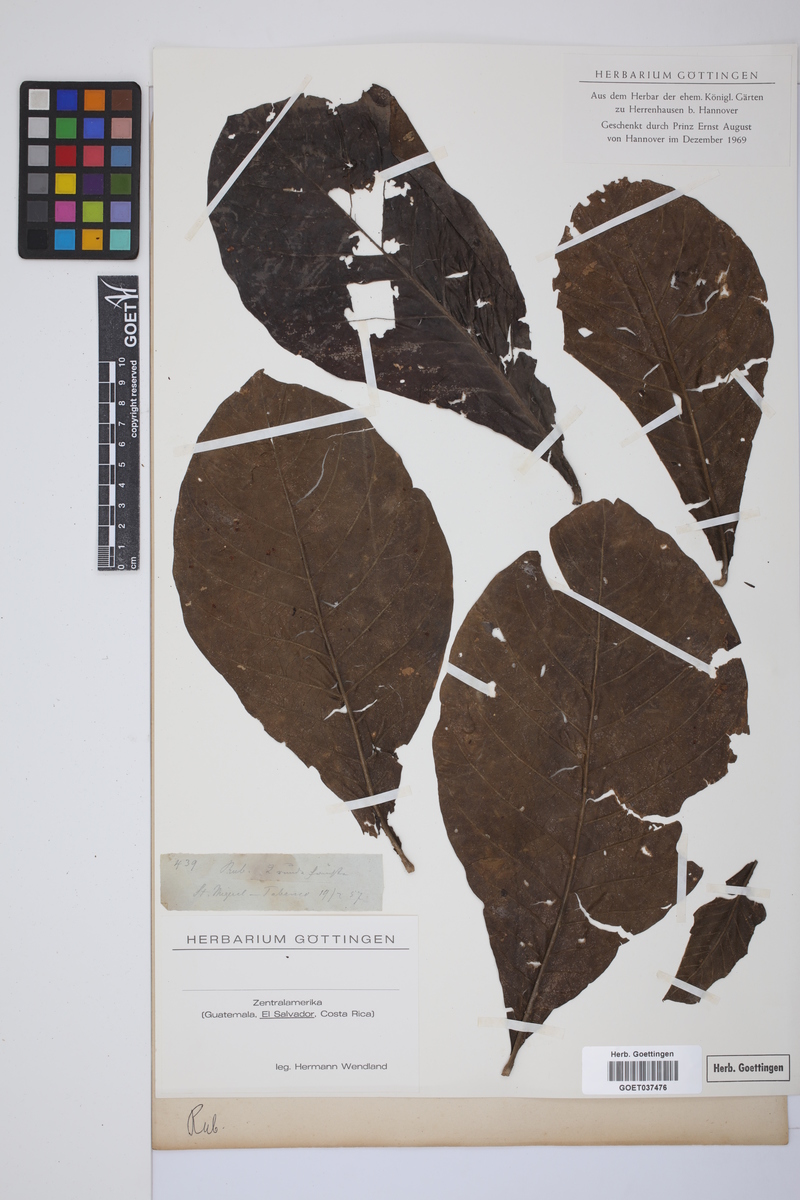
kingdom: Plantae
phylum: Tracheophyta
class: Magnoliopsida
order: Gentianales
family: Rubiaceae
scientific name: Rubiaceae
